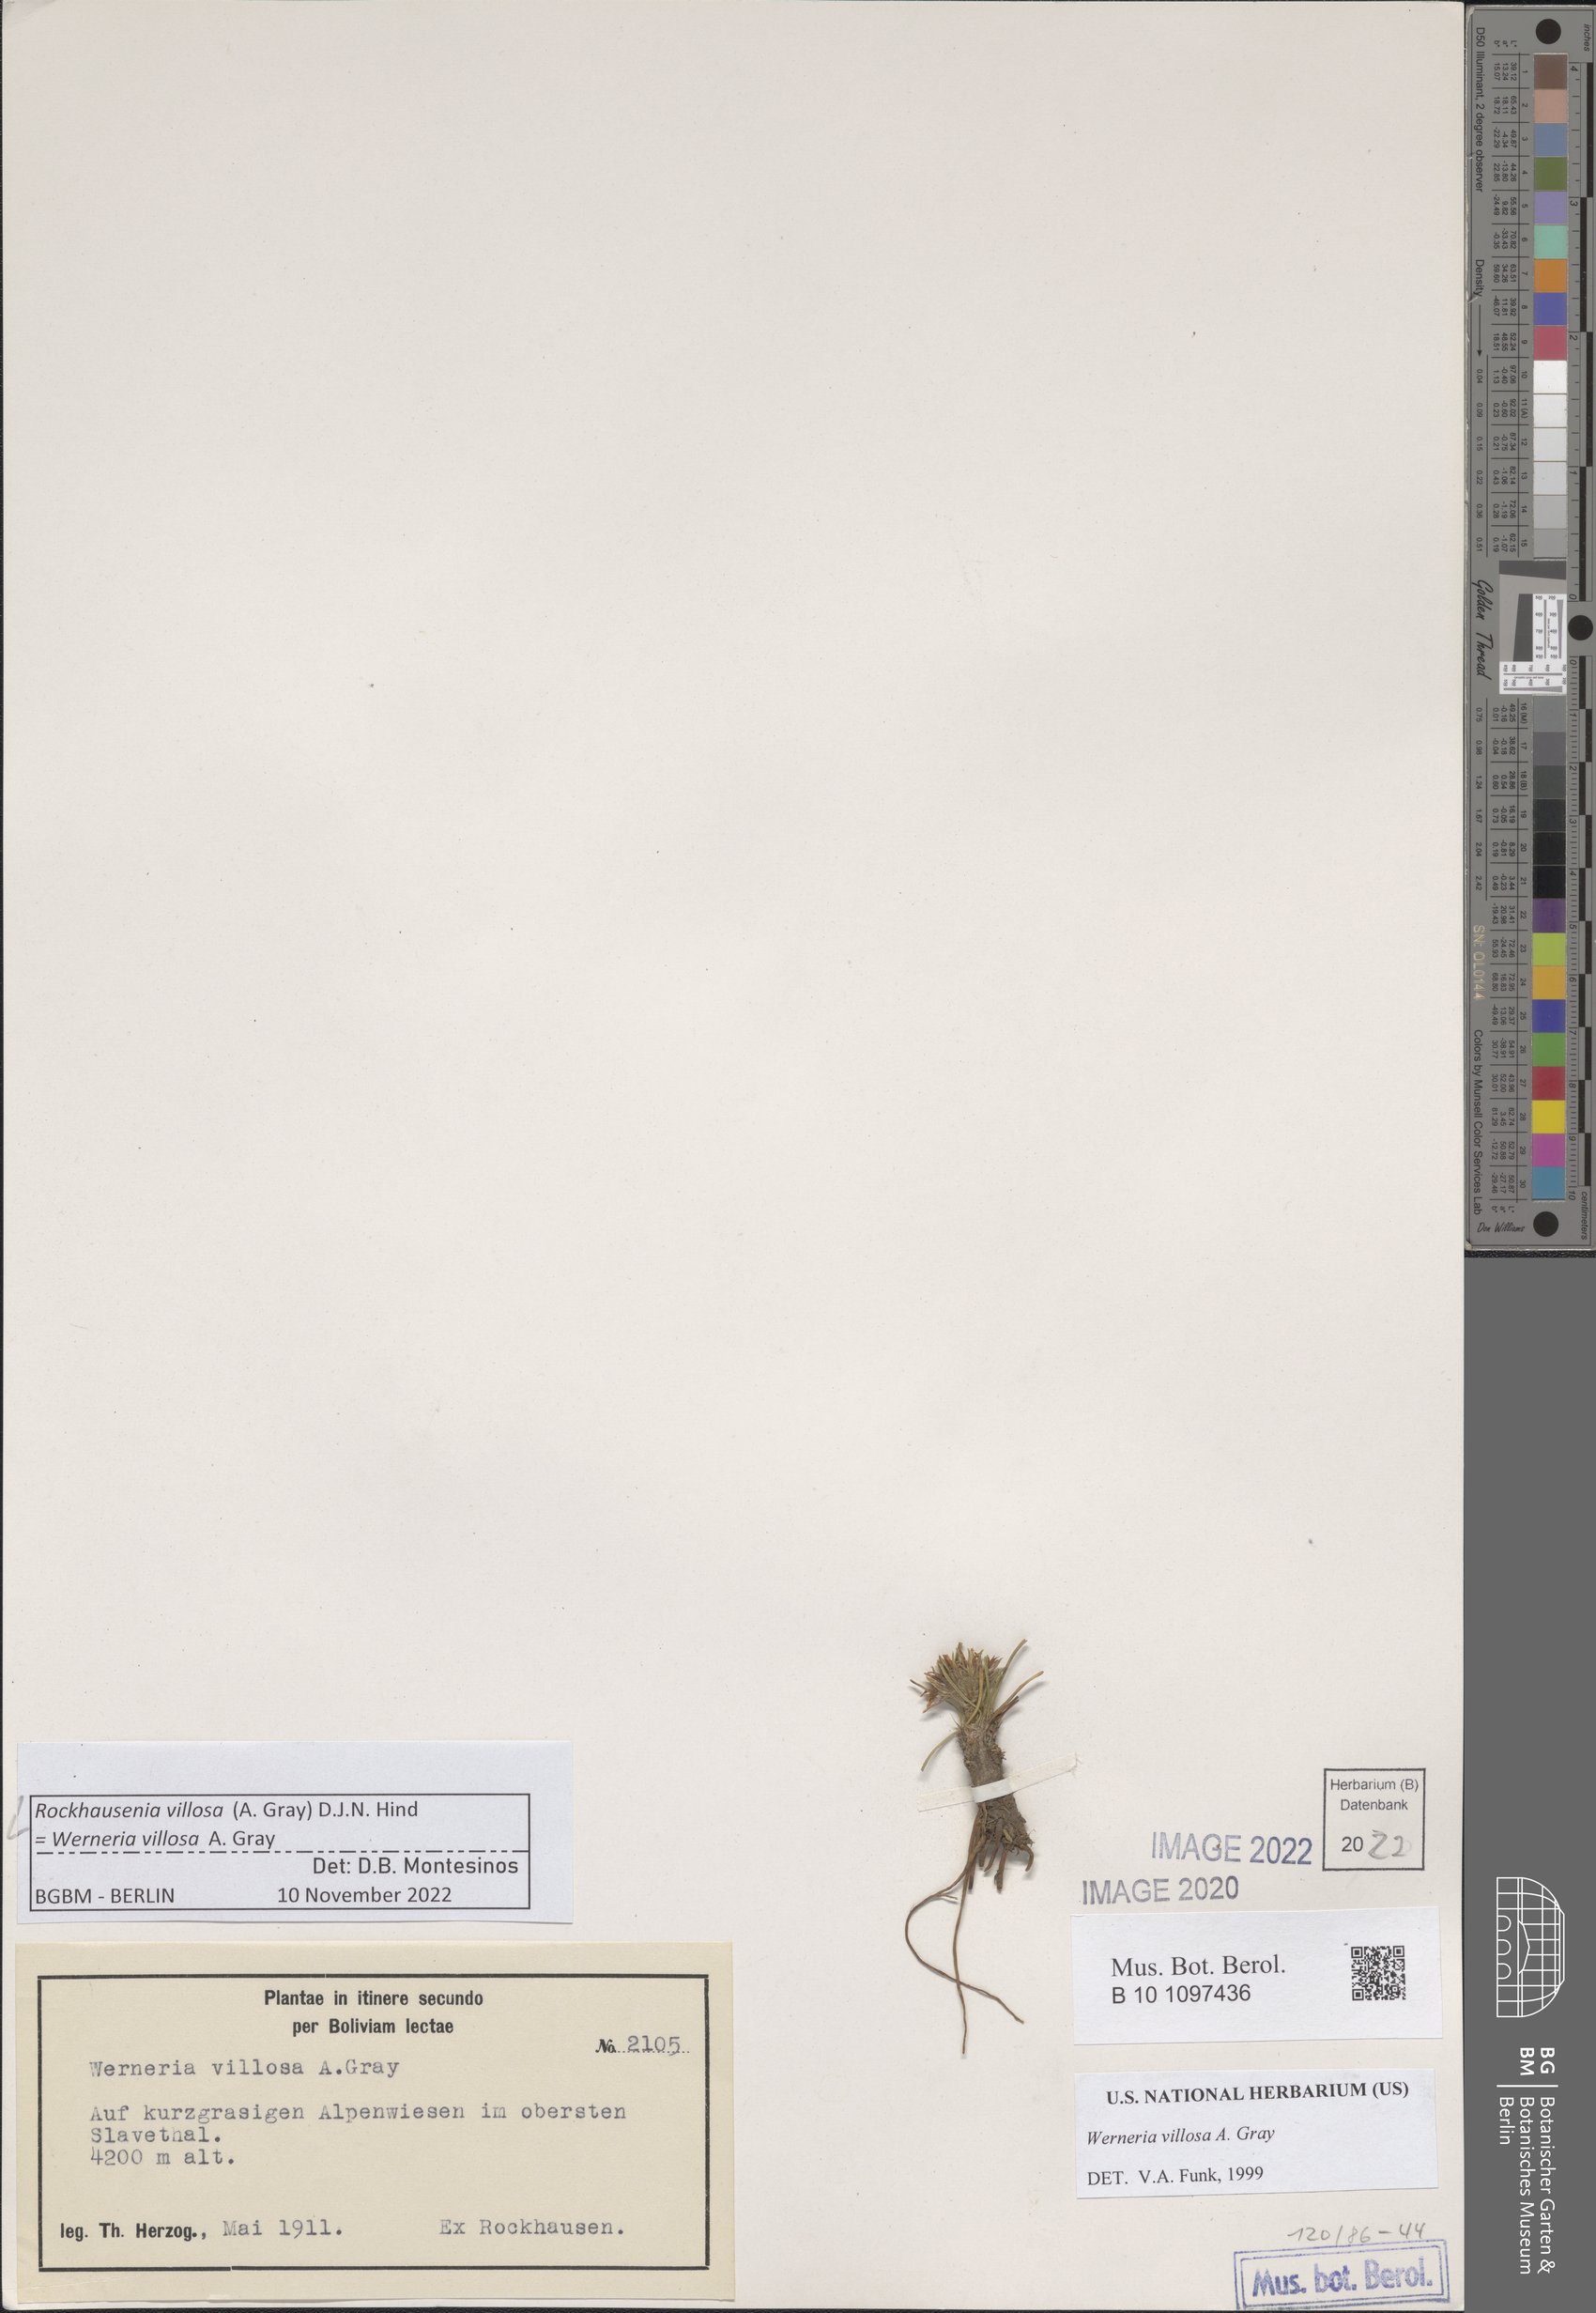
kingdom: Plantae
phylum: Tracheophyta
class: Magnoliopsida
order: Asterales
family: Asteraceae
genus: Rockhausenia
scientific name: Rockhausenia villosa
